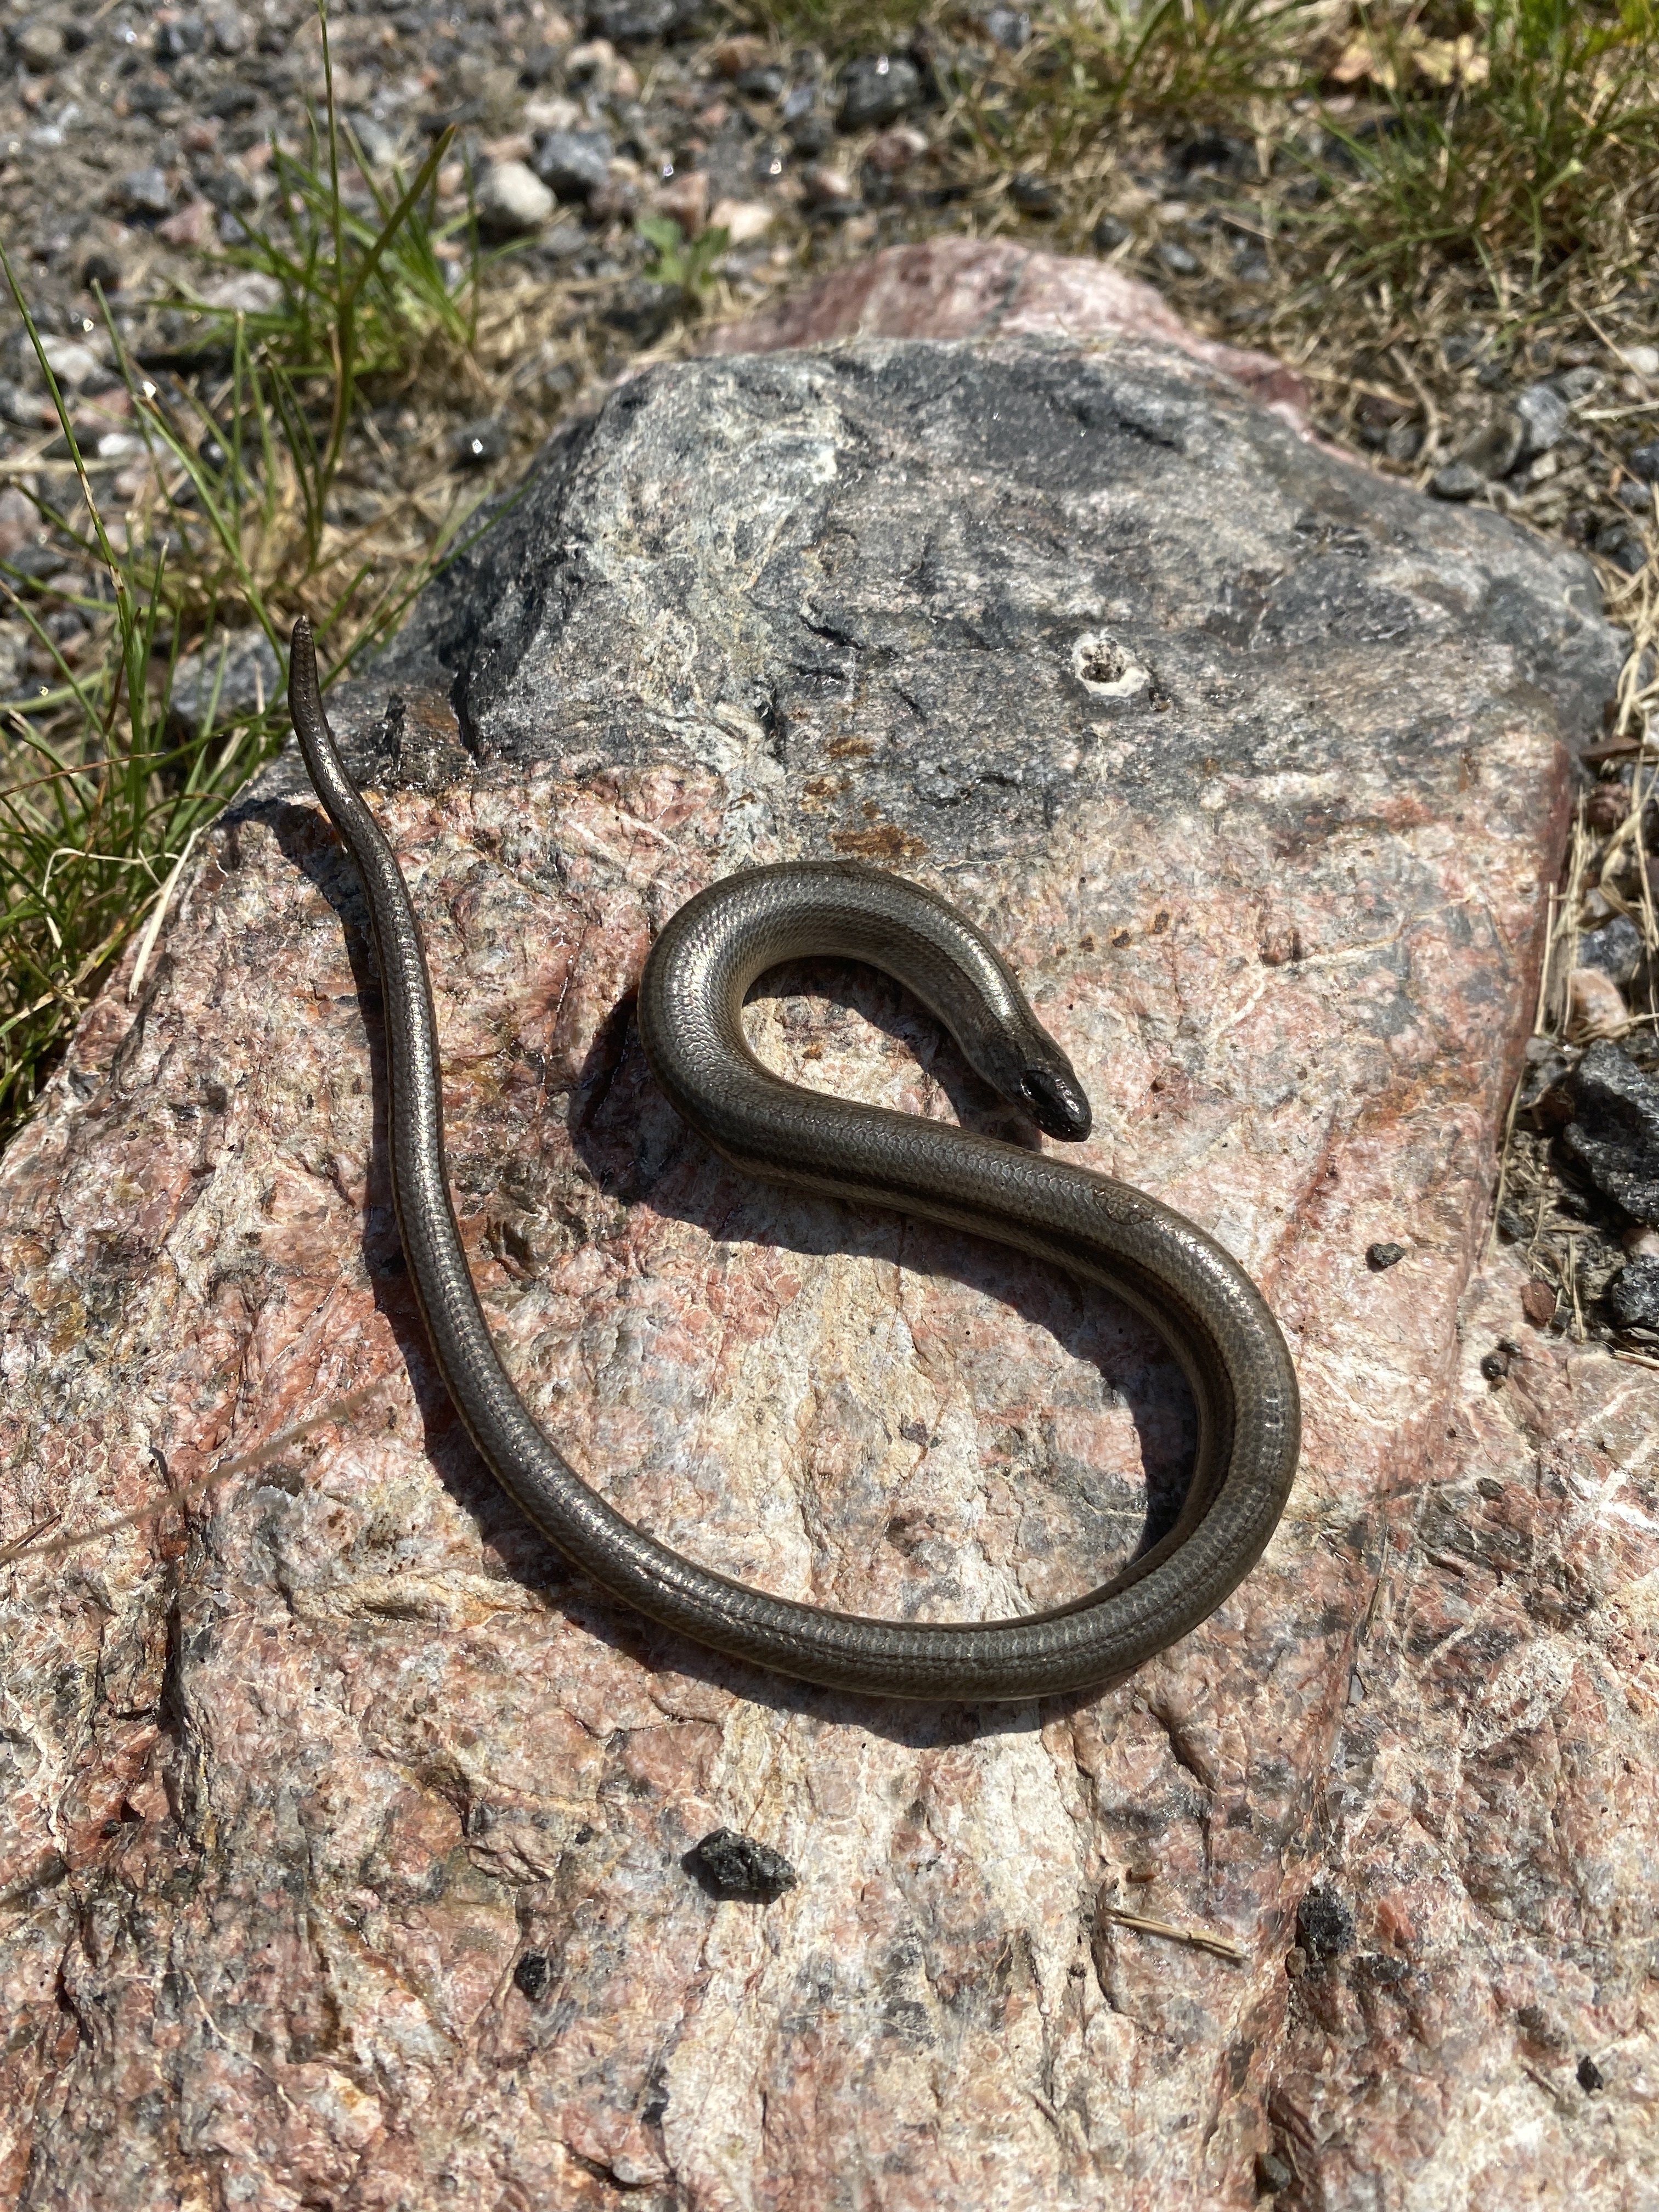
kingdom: Animalia
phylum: Chordata
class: Squamata
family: Anguidae
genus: Anguis
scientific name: Anguis colchica
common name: Slow worm
